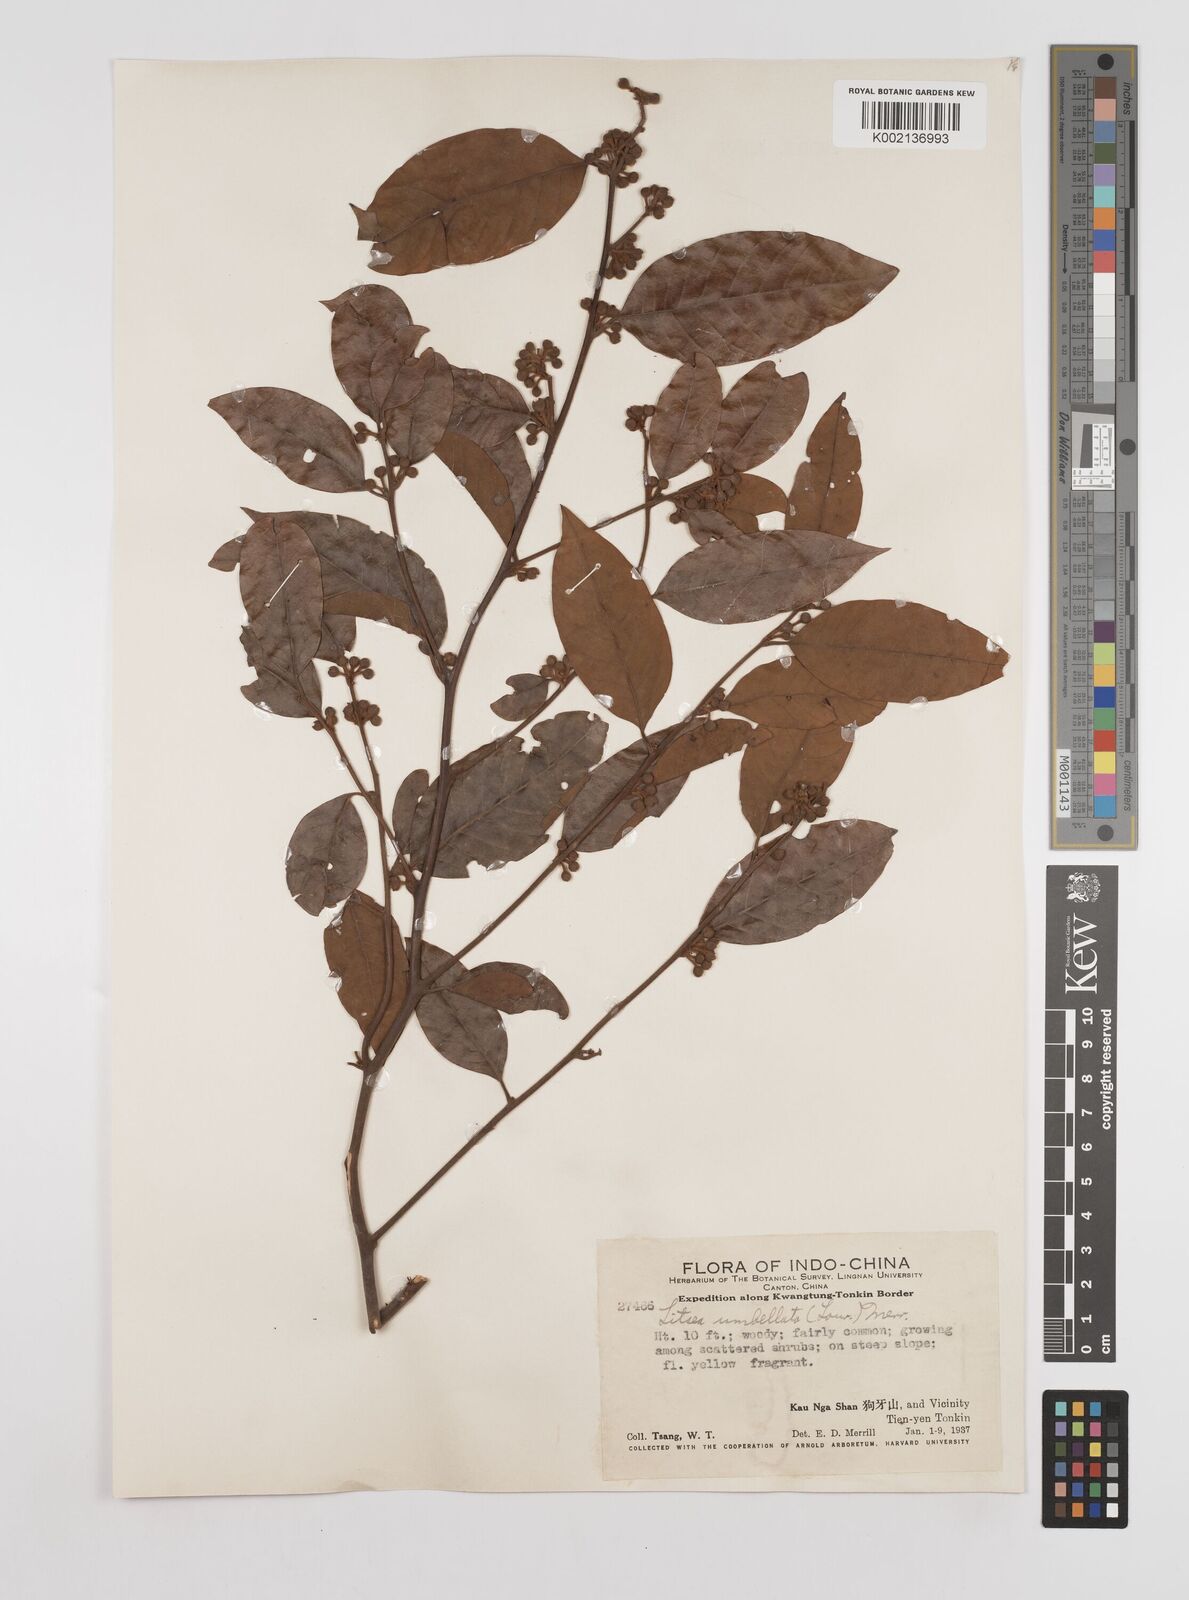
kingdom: Plantae
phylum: Tracheophyta
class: Magnoliopsida
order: Laurales
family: Lauraceae
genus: Litsea
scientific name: Litsea umbellata
